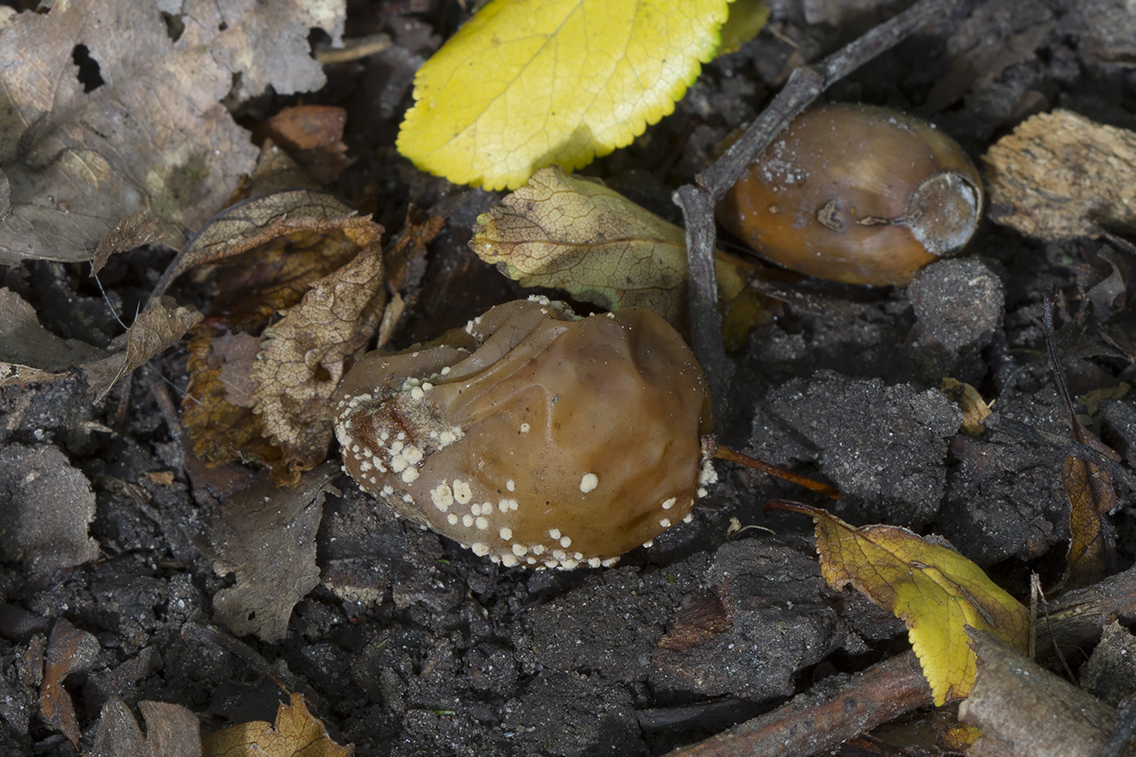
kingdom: Fungi
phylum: Ascomycota
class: Leotiomycetes
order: Helotiales
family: Sclerotiniaceae
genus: Monilinia
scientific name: Monilinia laxa
